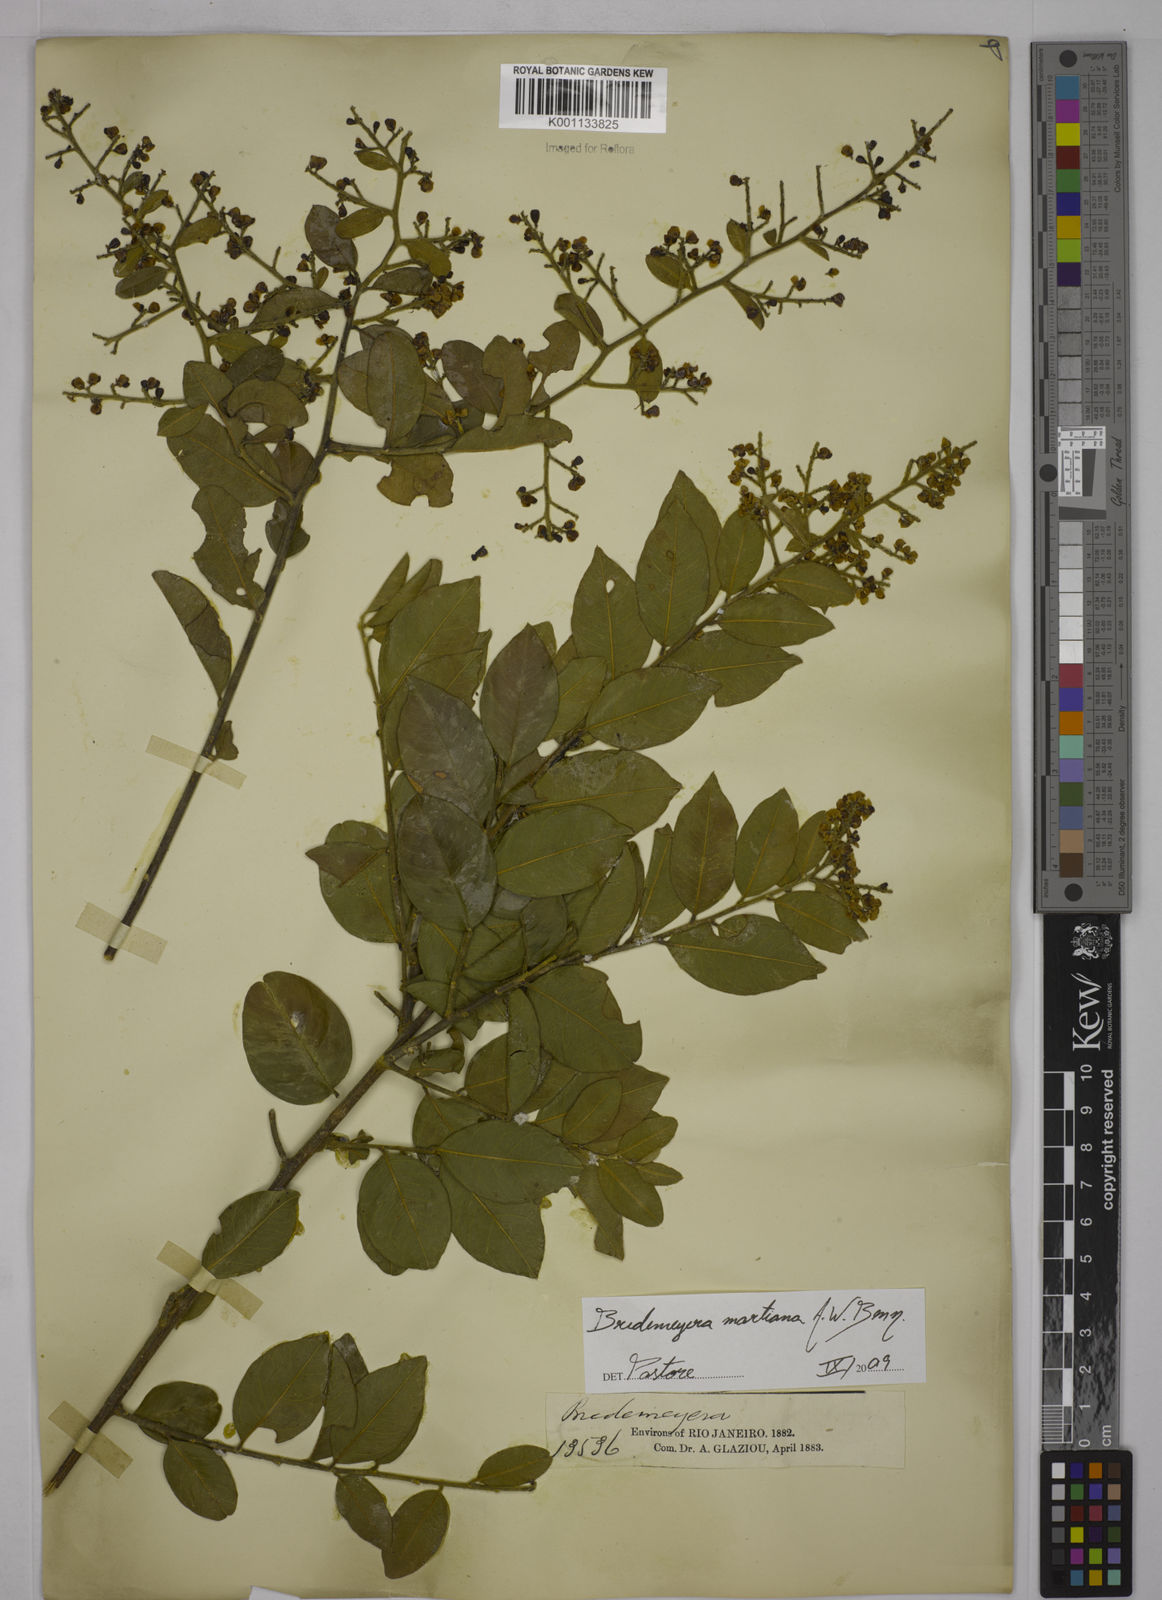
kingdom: Plantae
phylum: Tracheophyta
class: Magnoliopsida
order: Fabales
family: Polygalaceae
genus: Bredemeyera
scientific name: Bredemeyera martiana
